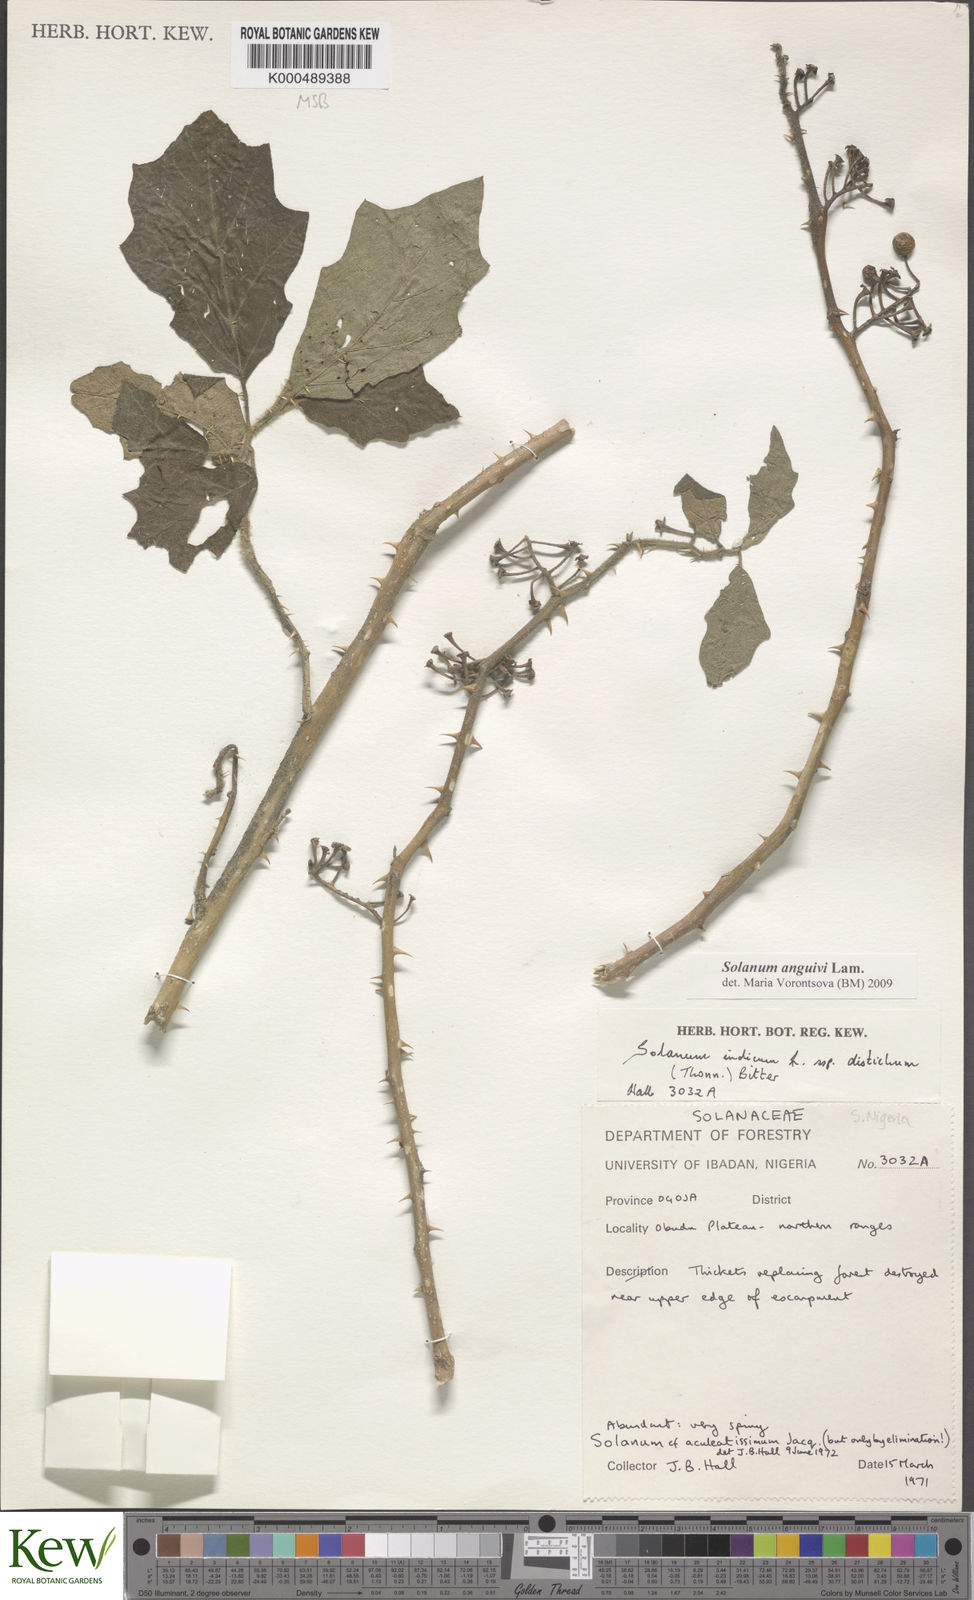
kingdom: Plantae
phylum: Tracheophyta
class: Magnoliopsida
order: Solanales
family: Solanaceae
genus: Solanum
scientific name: Solanum anguivi
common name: Forest bitterberry
